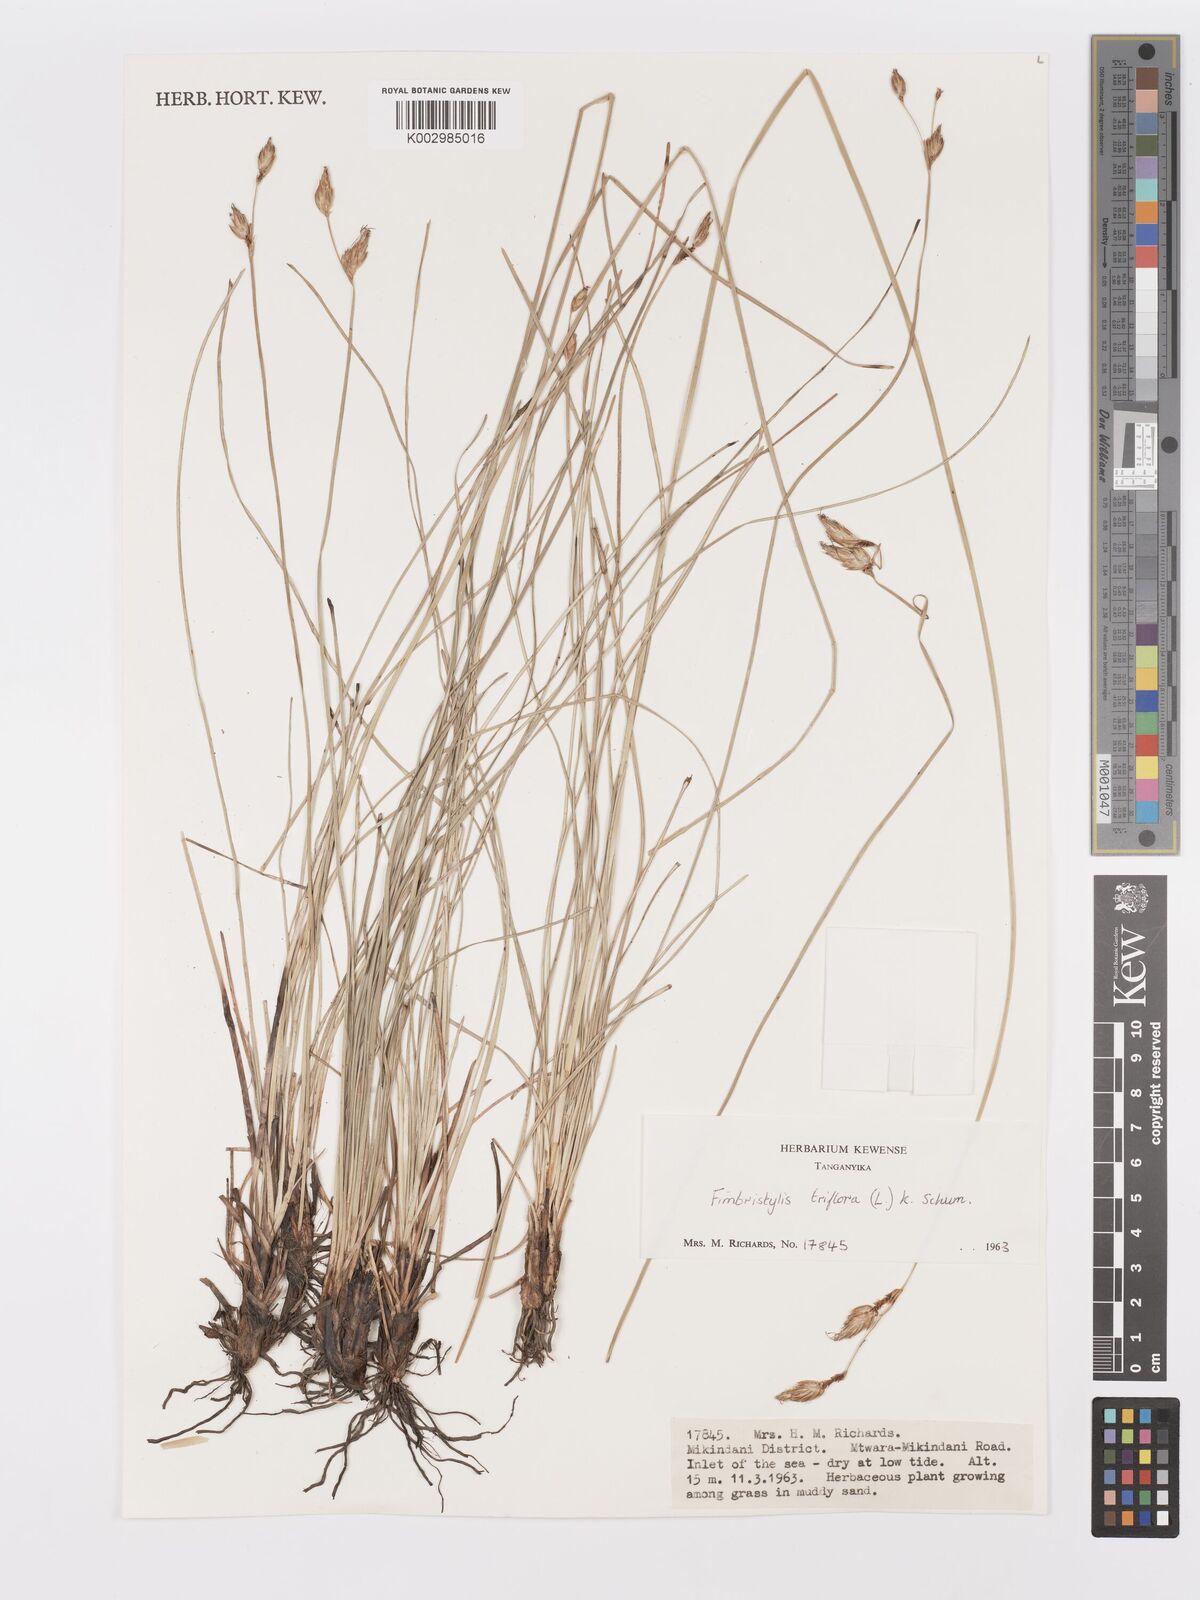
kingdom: Plantae
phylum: Tracheophyta
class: Liliopsida
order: Poales
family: Cyperaceae
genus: Abildgaardia
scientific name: Abildgaardia triflora
